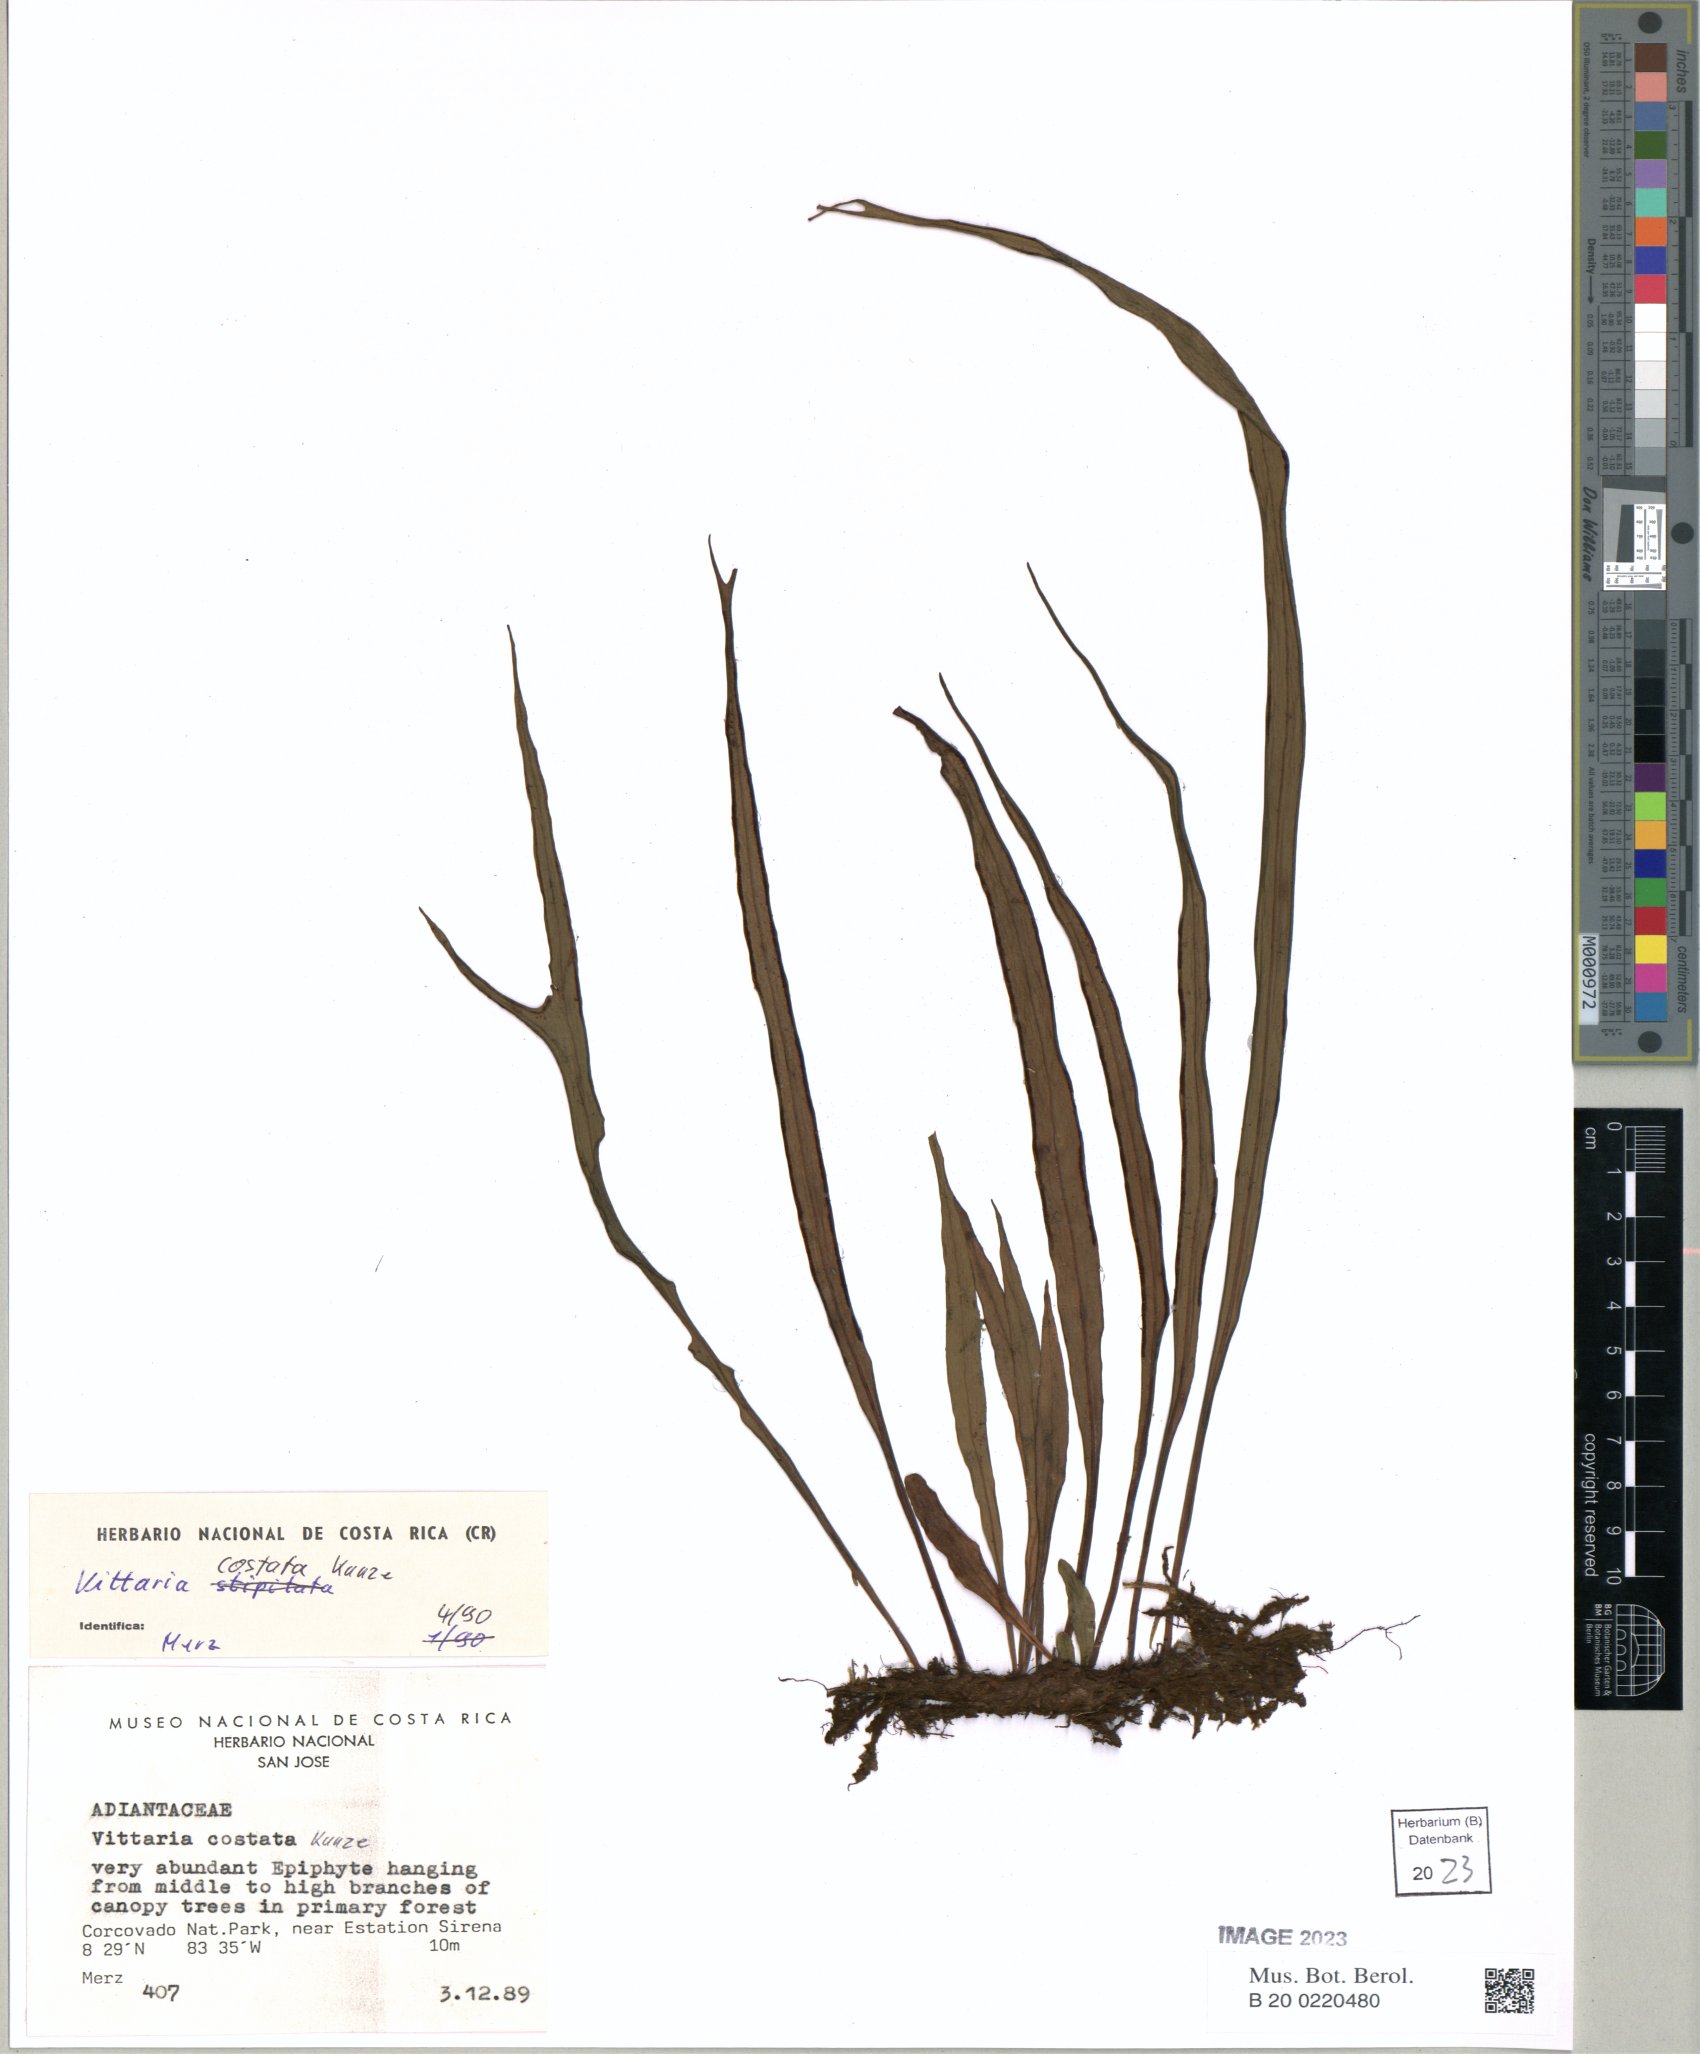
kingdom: Plantae
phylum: Tracheophyta
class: Polypodiopsida
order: Polypodiales
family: Pteridaceae
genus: Ananthacorus
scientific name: Ananthacorus angustifolius
